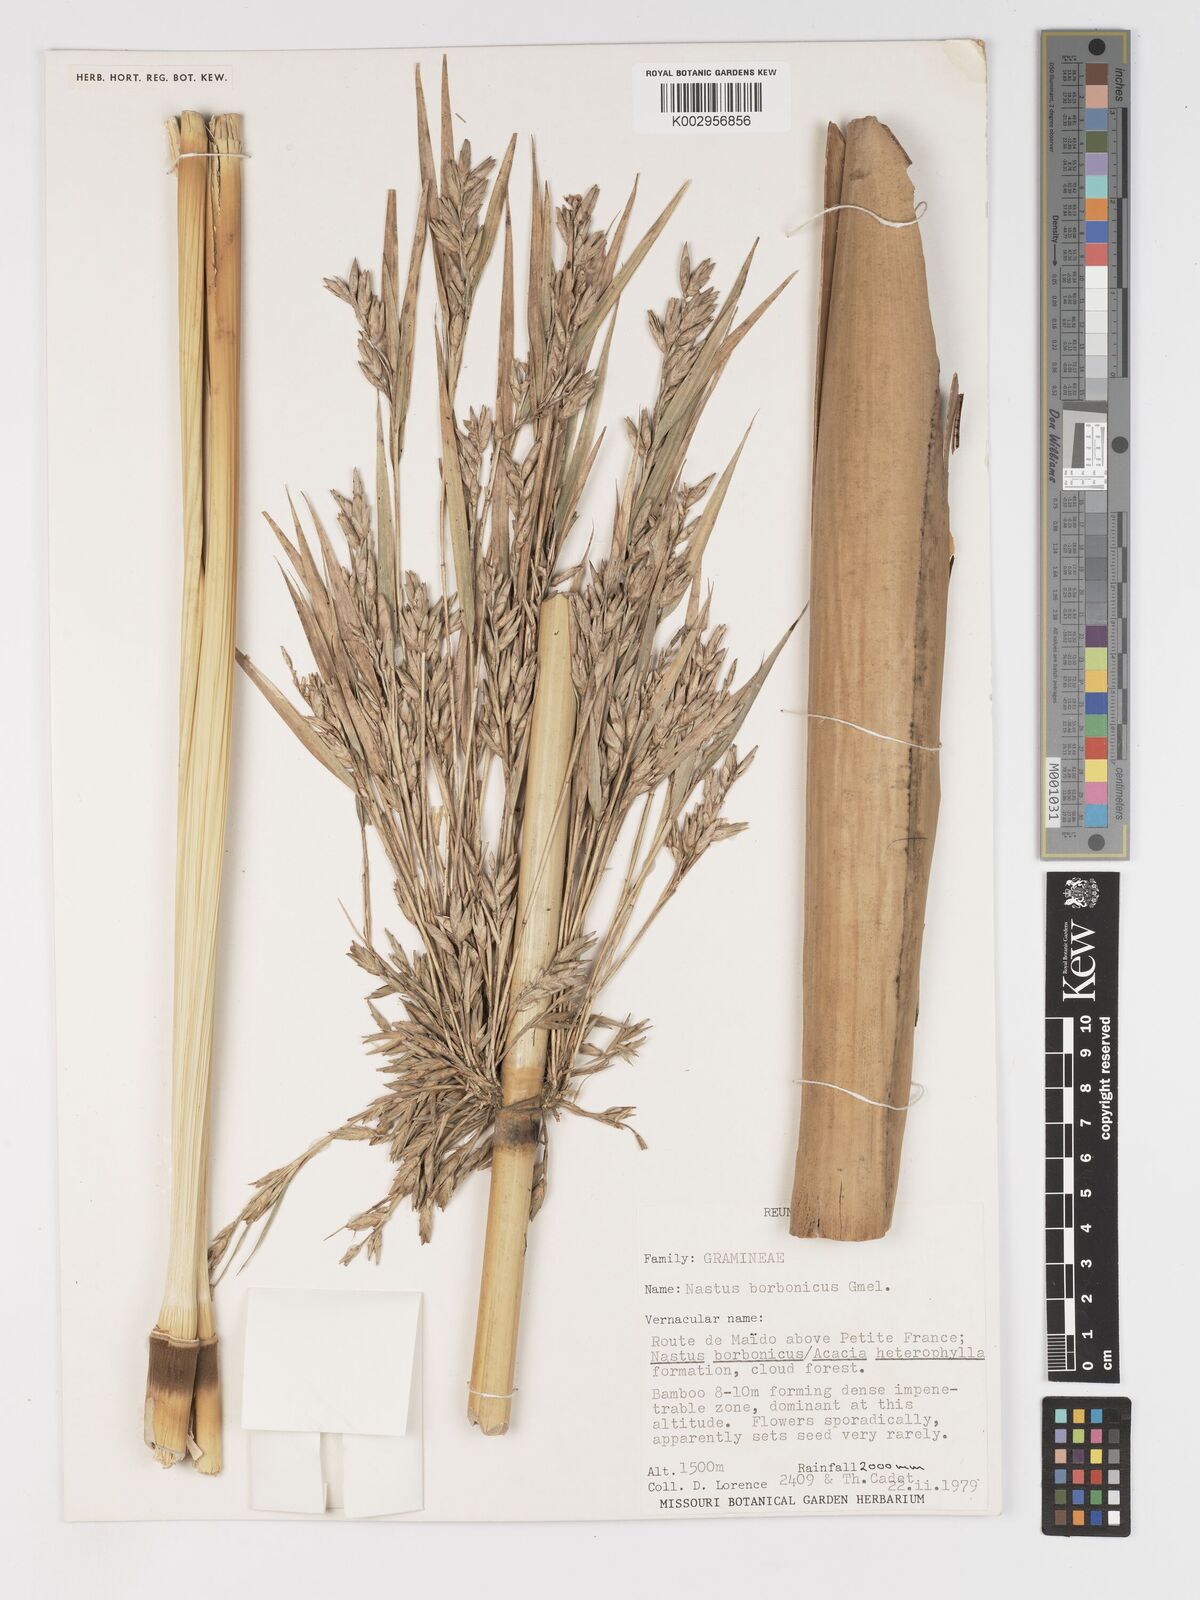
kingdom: Plantae
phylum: Tracheophyta
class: Liliopsida
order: Poales
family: Poaceae
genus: Nastus
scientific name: Nastus
